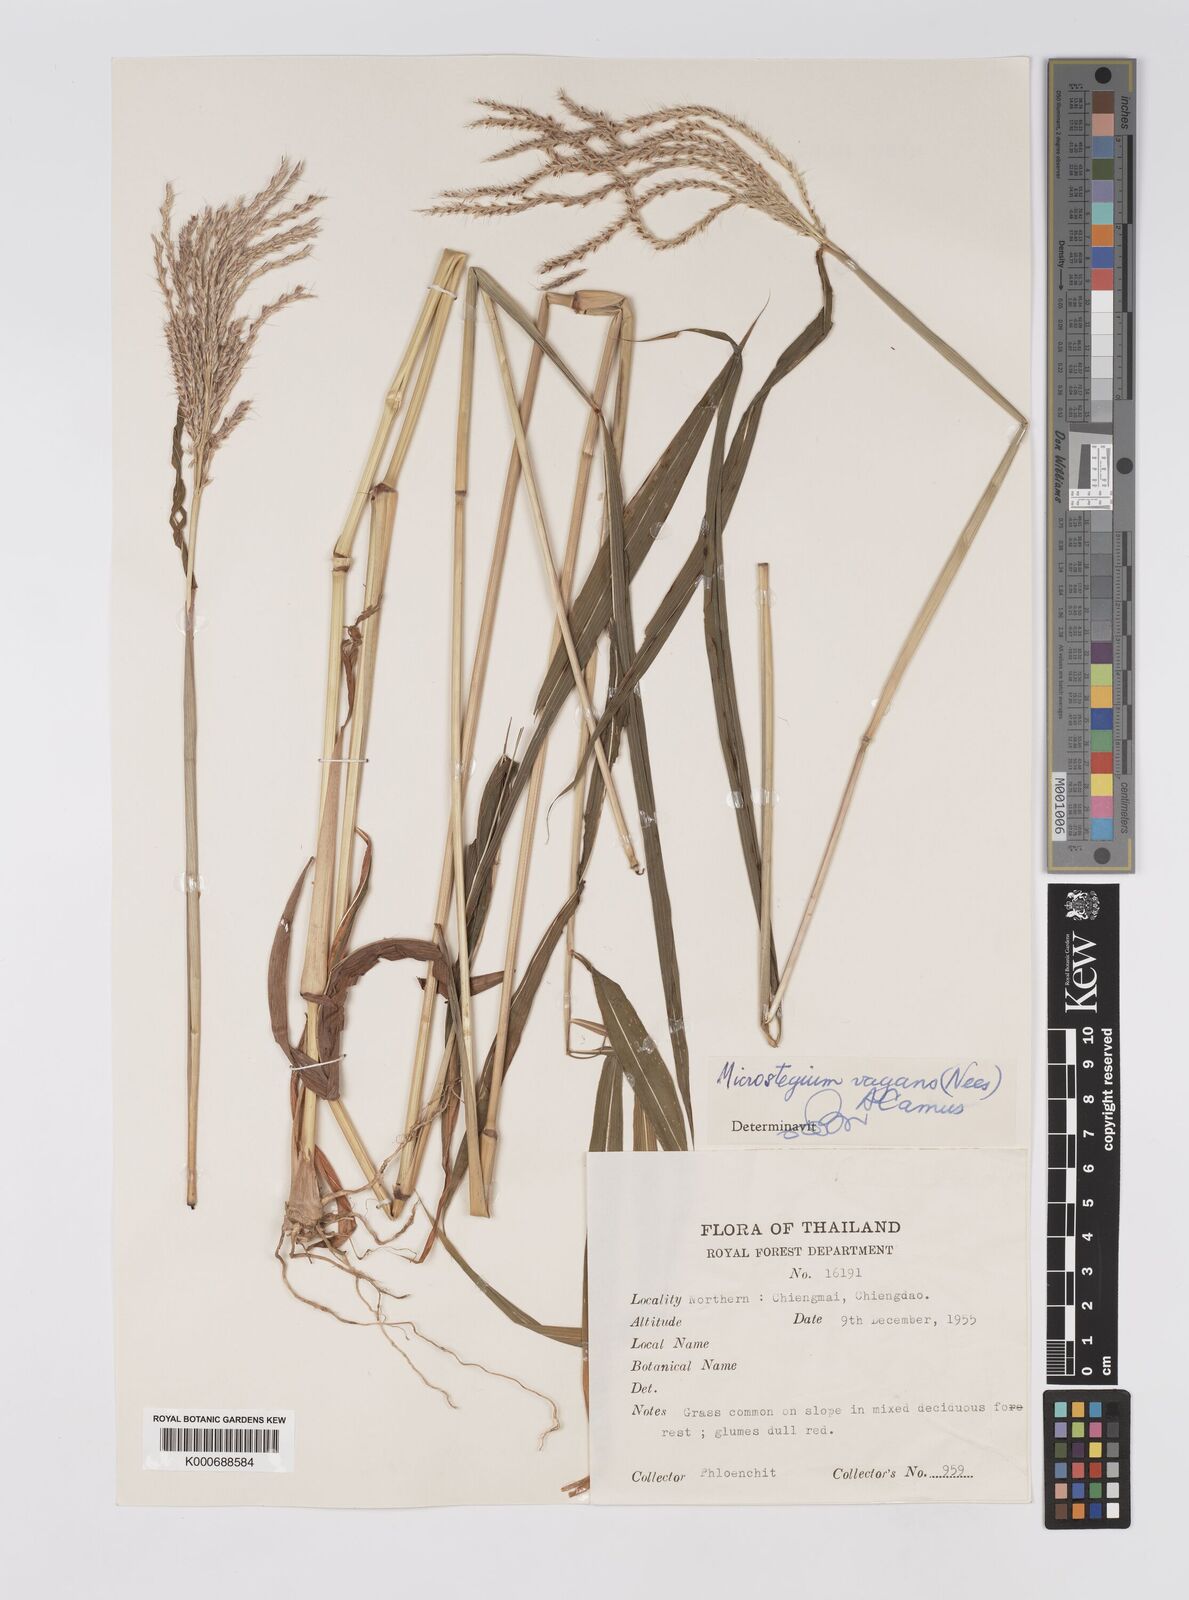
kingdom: Plantae
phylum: Tracheophyta
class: Liliopsida
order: Poales
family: Poaceae
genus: Microstegium
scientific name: Microstegium fasciculatum
